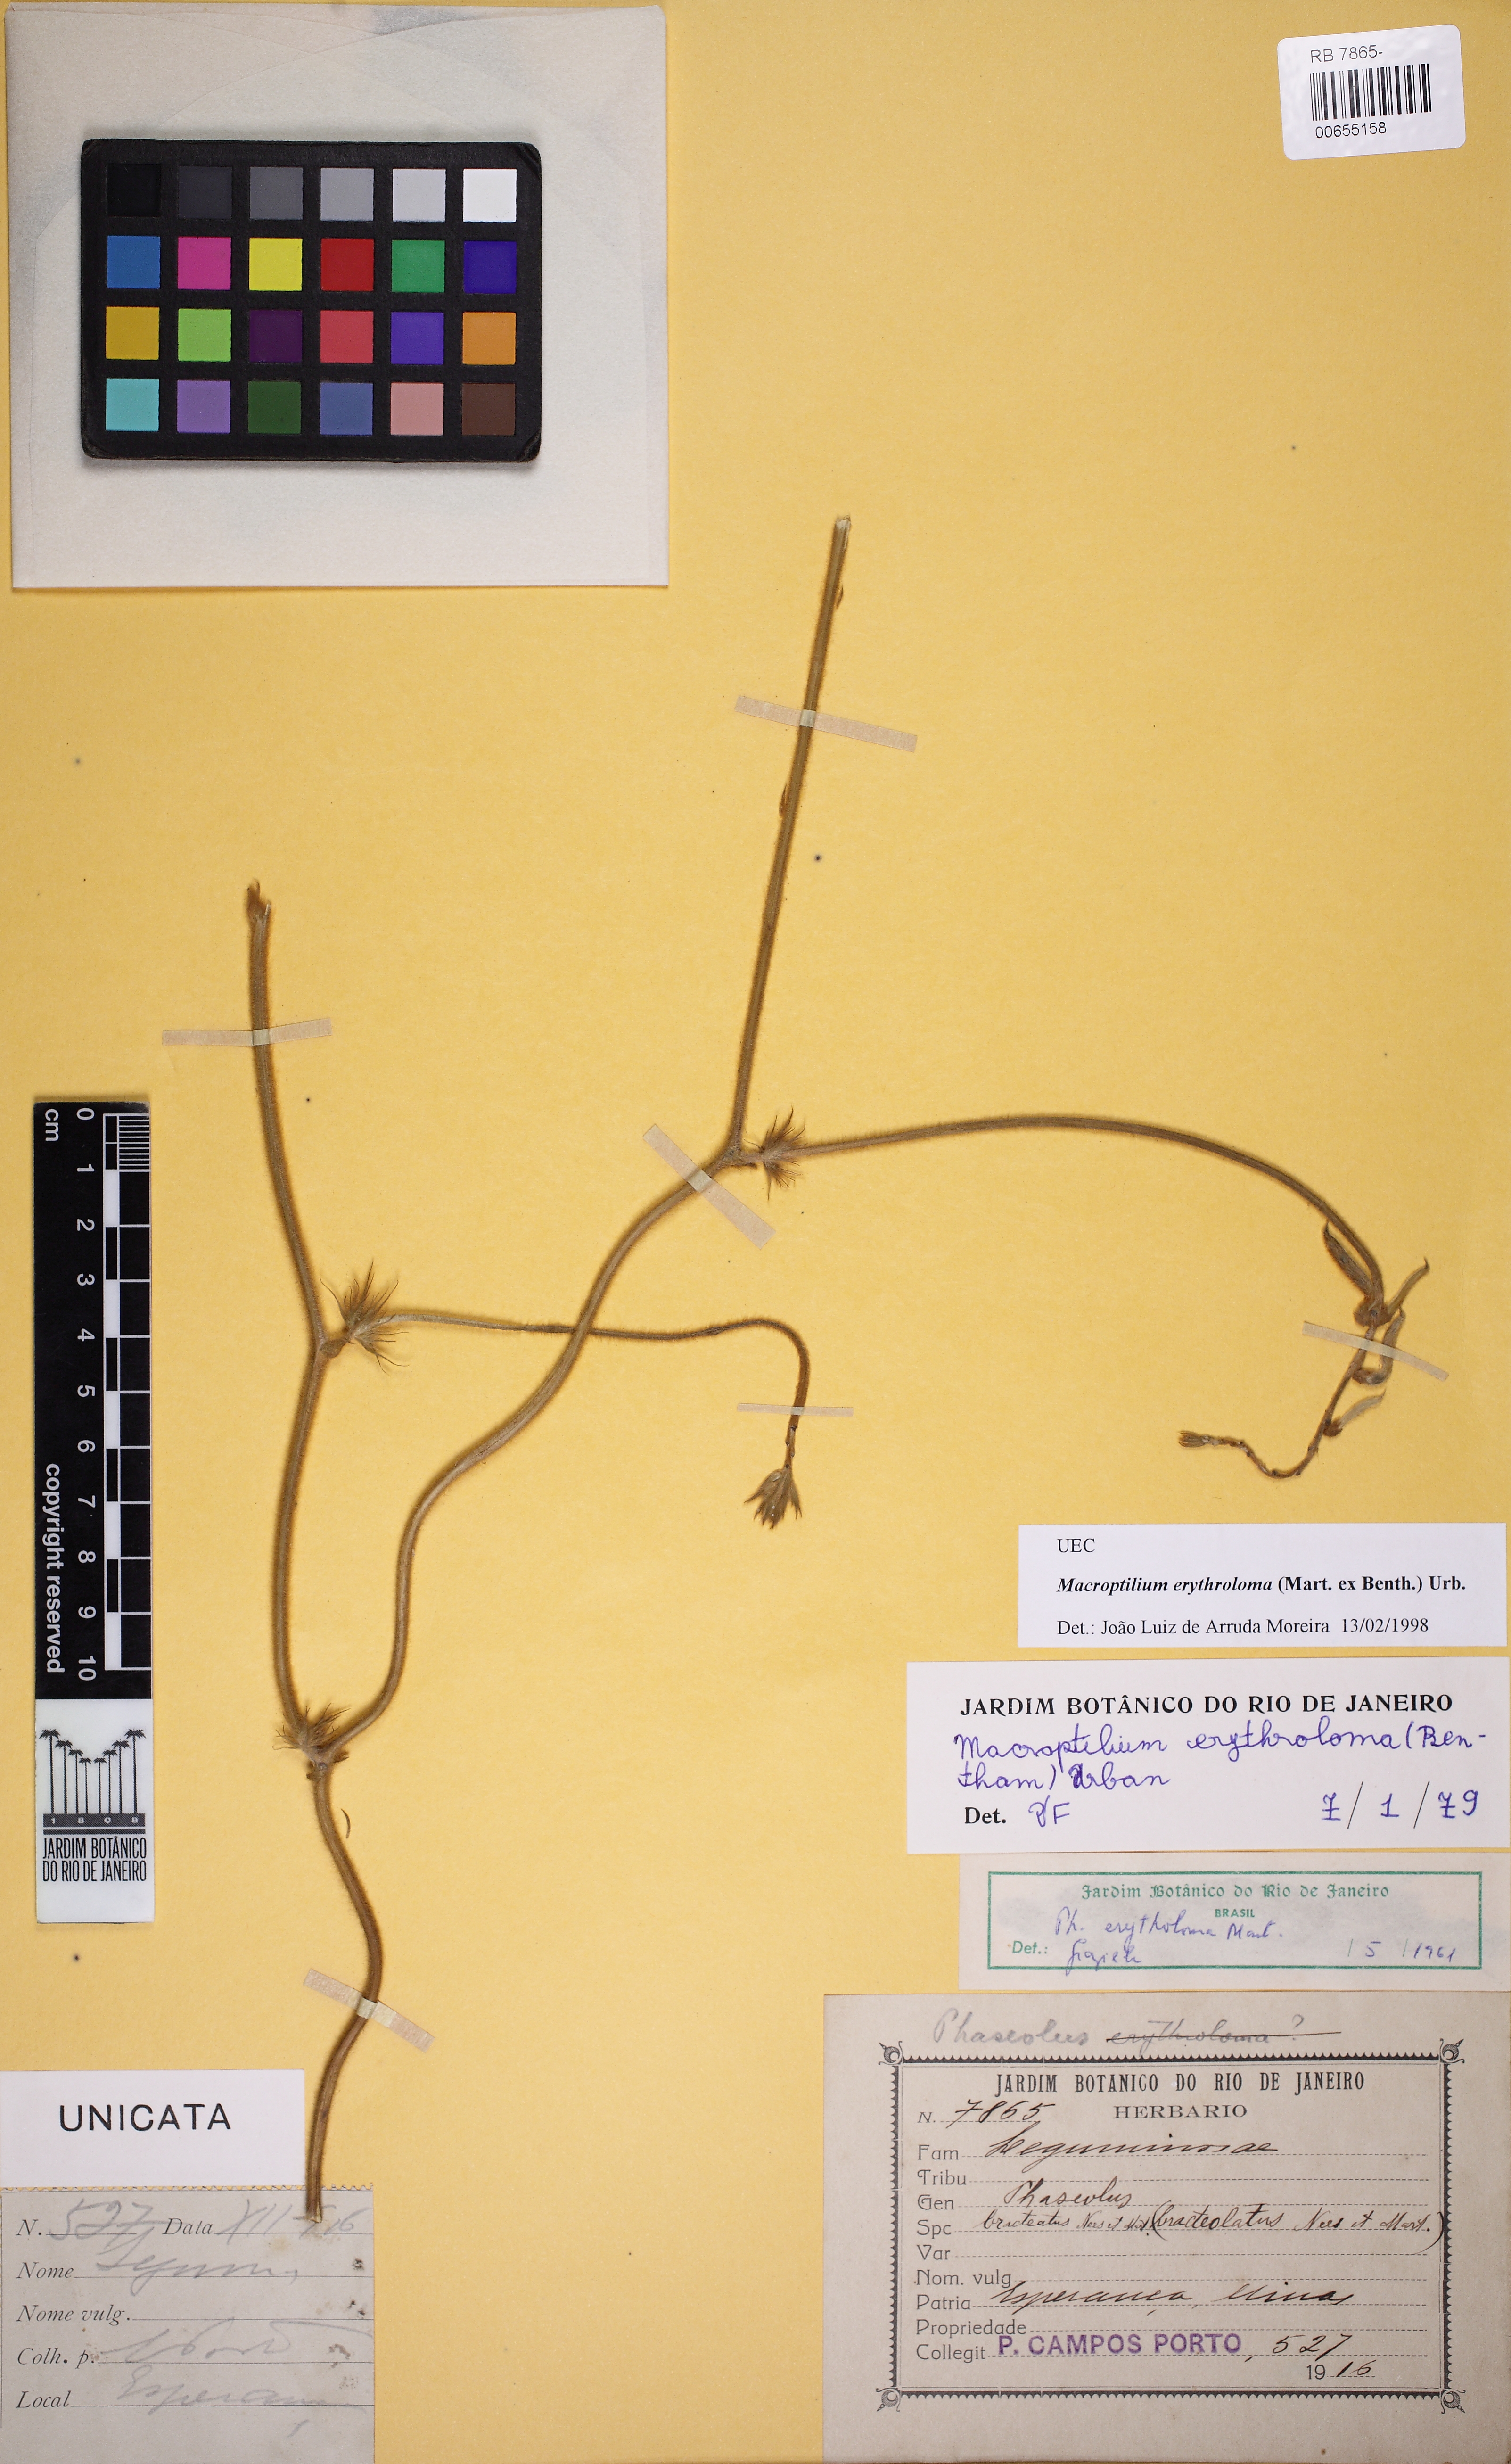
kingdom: Plantae
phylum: Tracheophyta
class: Magnoliopsida
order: Fabales
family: Fabaceae
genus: Macroptilium
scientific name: Macroptilium erythroloma
